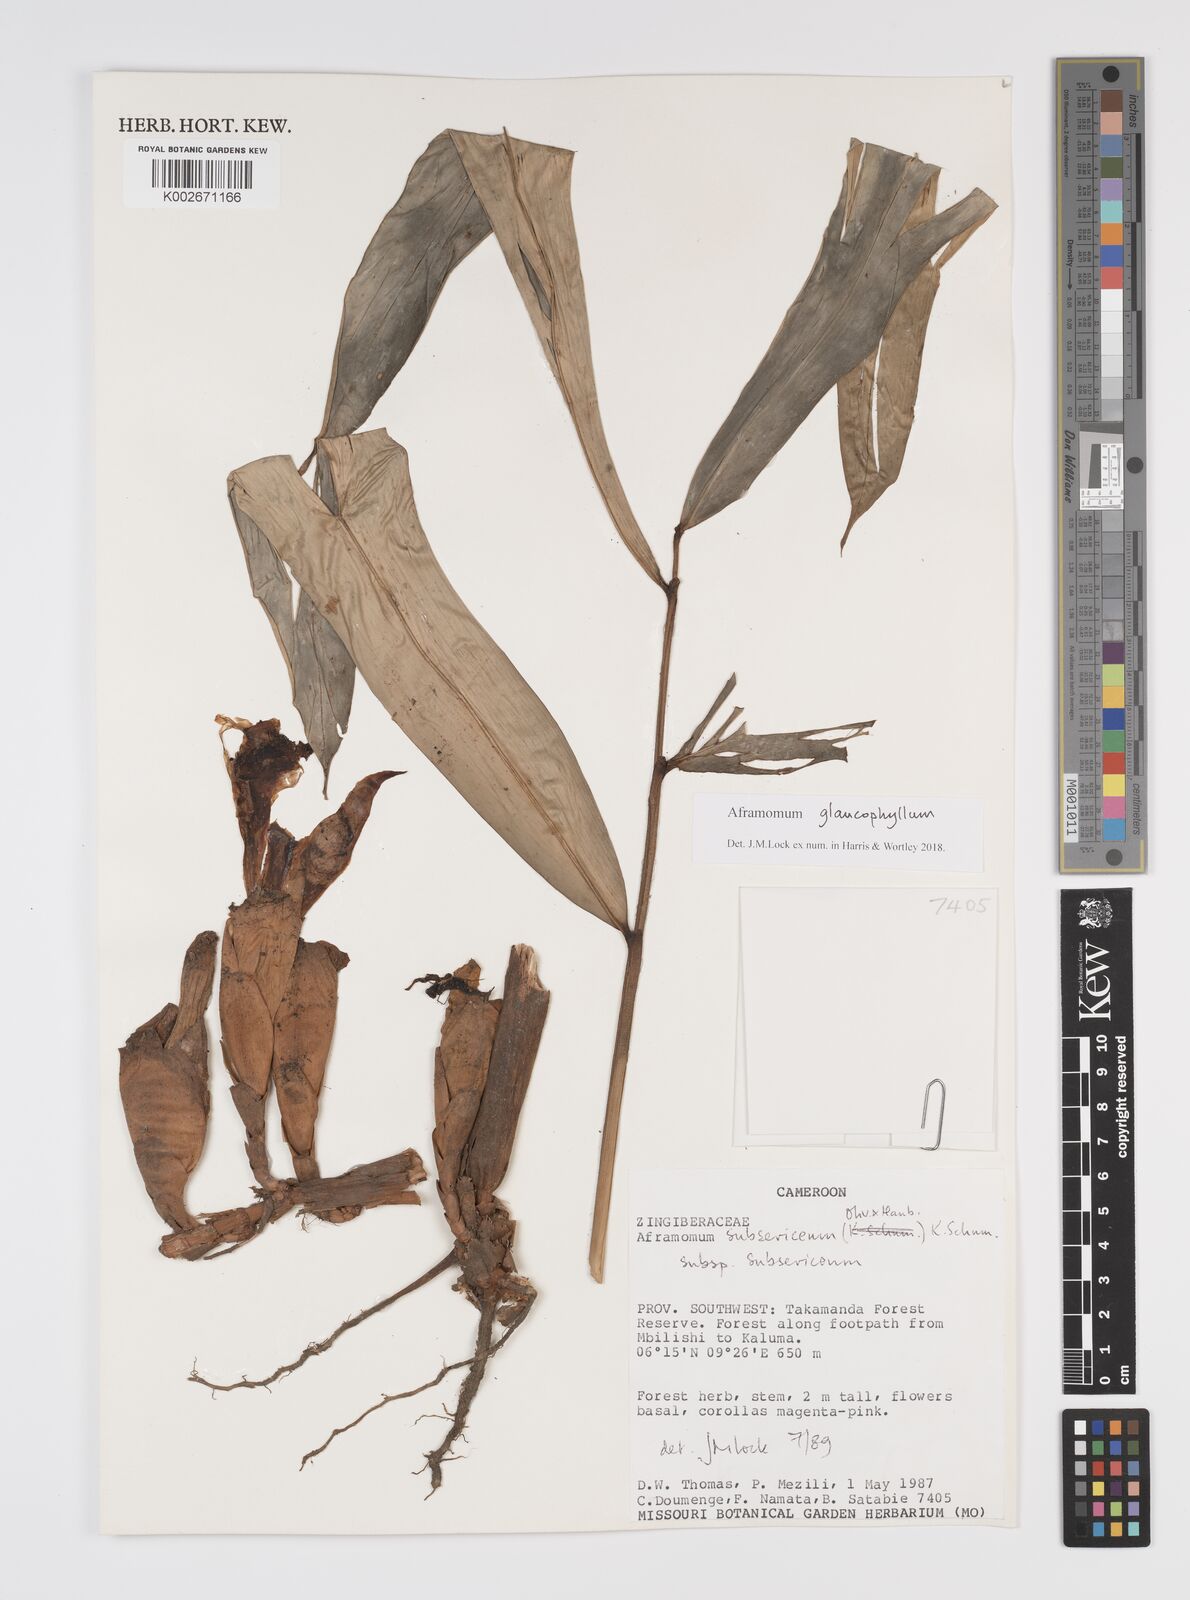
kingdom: Plantae
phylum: Tracheophyta
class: Liliopsida
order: Zingiberales
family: Zingiberaceae
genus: Aframomum
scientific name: Aframomum glaucophyllum
